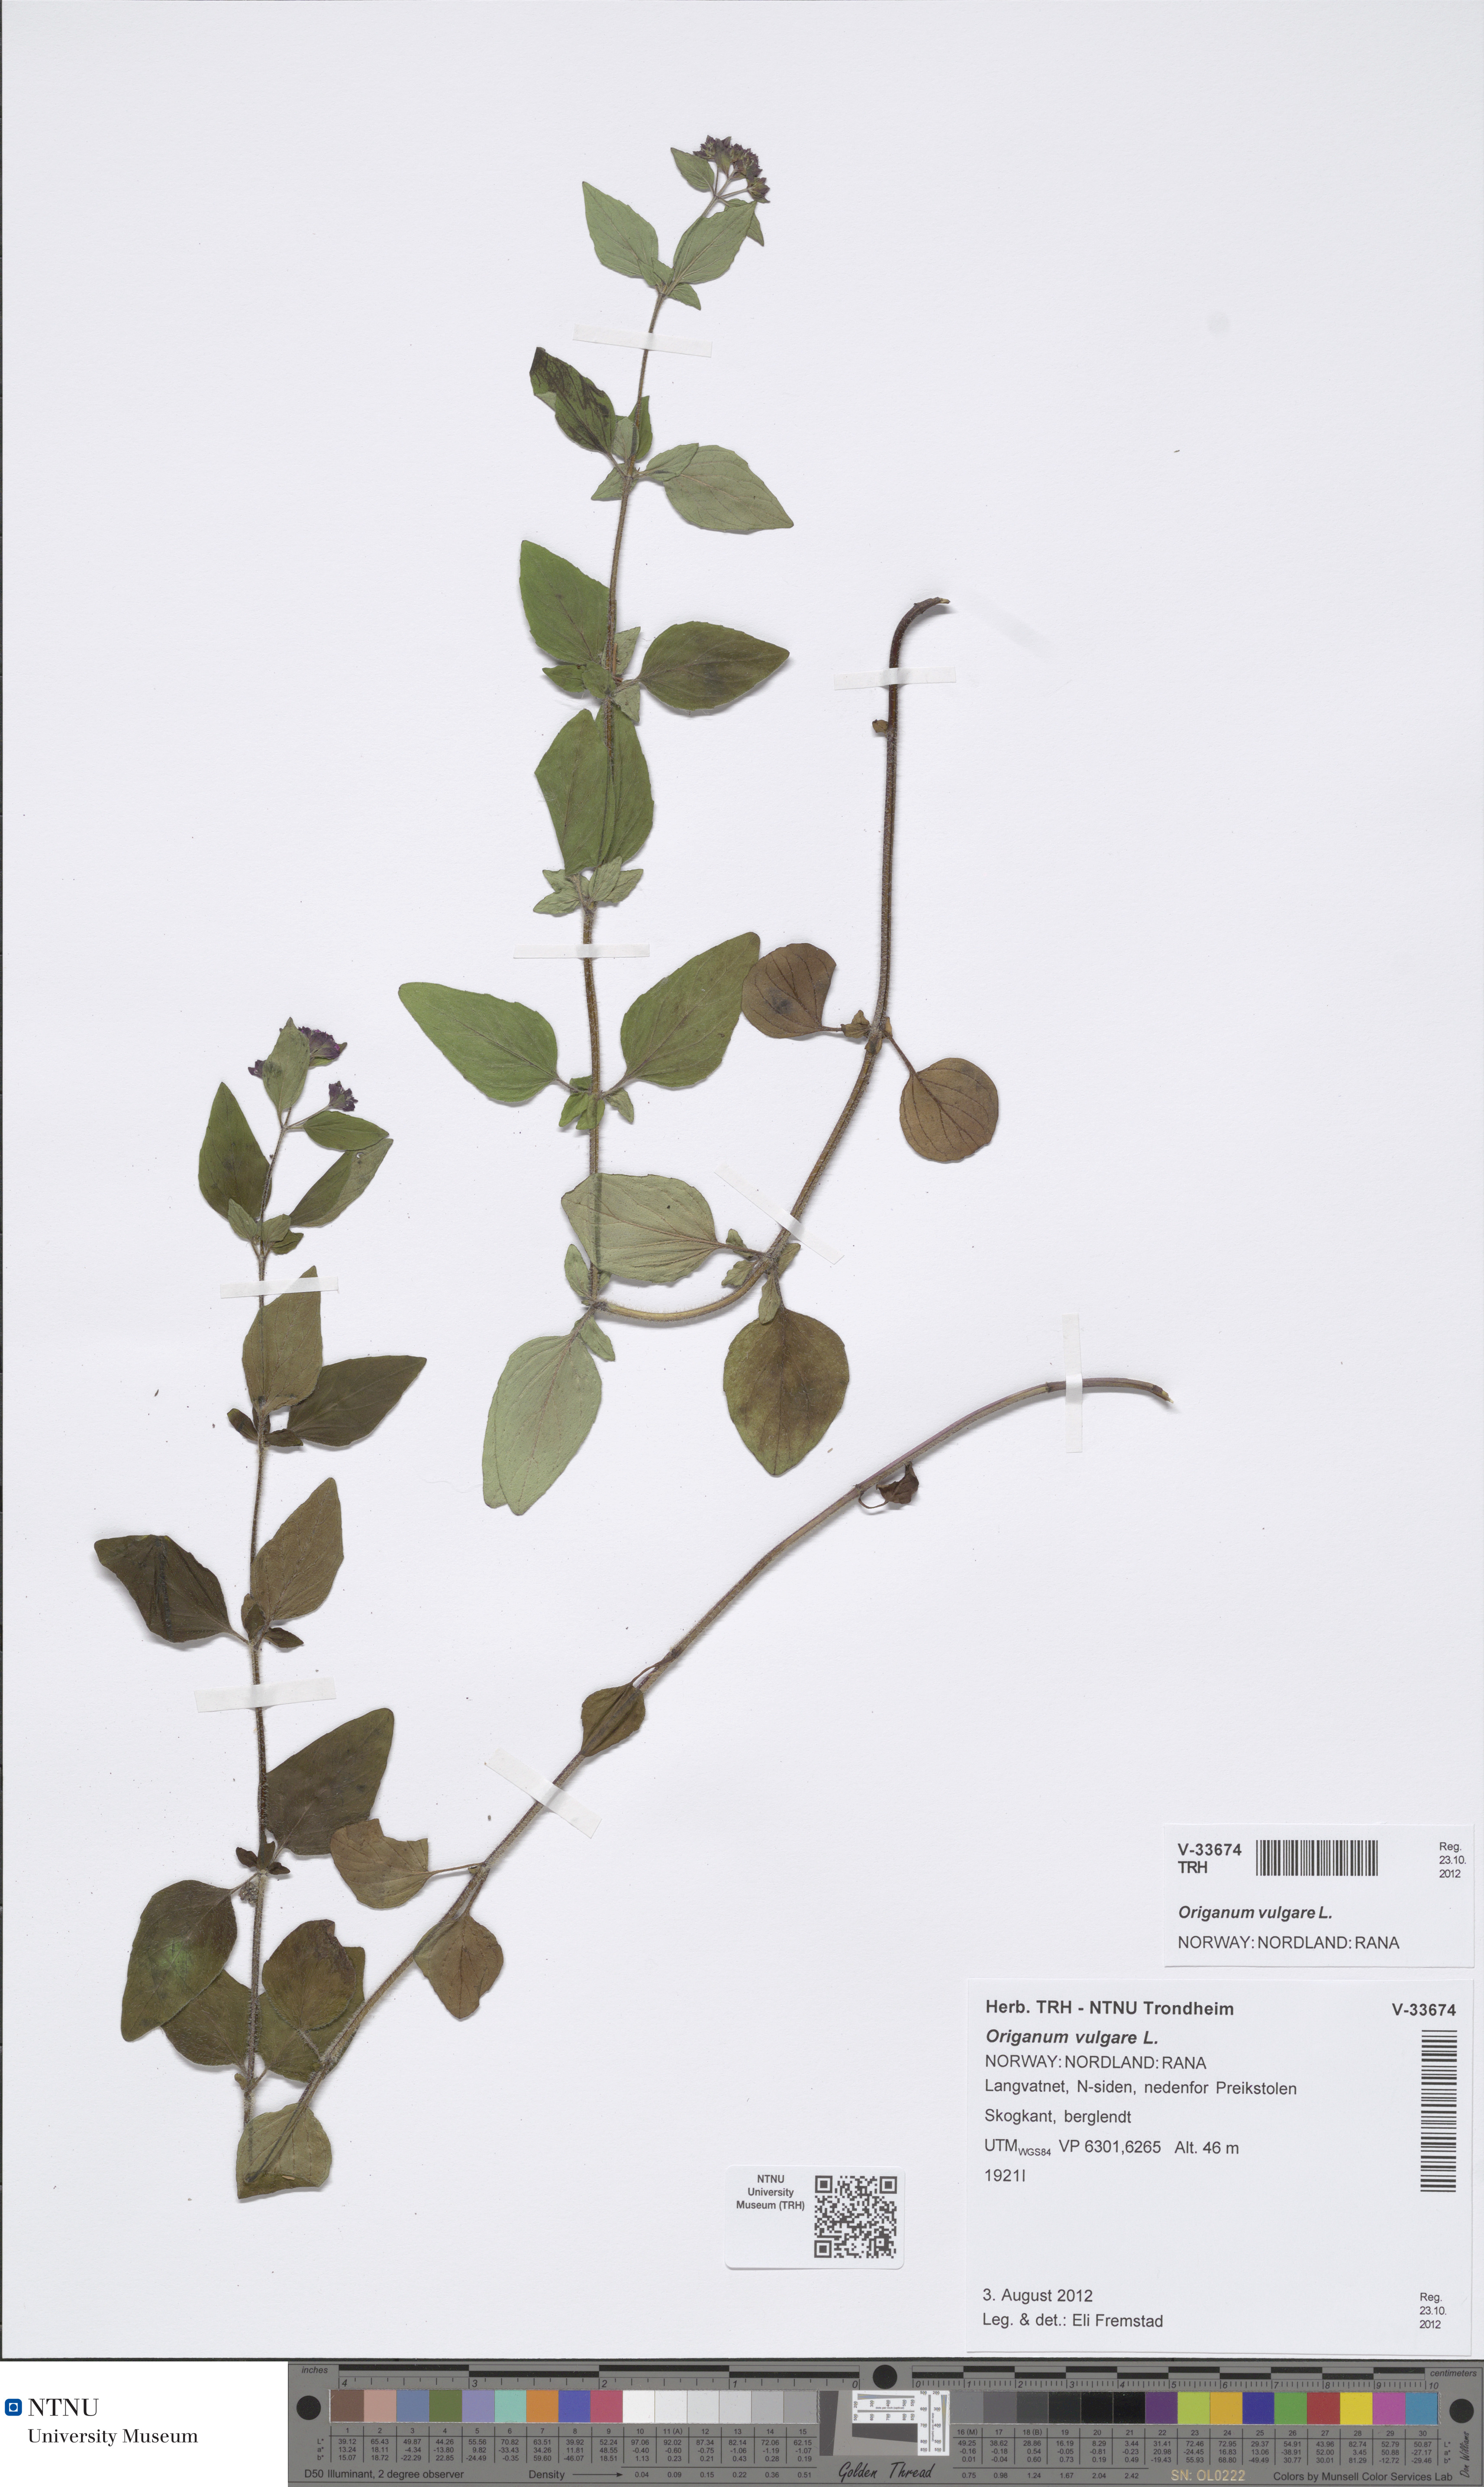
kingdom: Plantae
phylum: Tracheophyta
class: Magnoliopsida
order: Lamiales
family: Lamiaceae
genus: Origanum
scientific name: Origanum vulgare
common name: Wild marjoram
